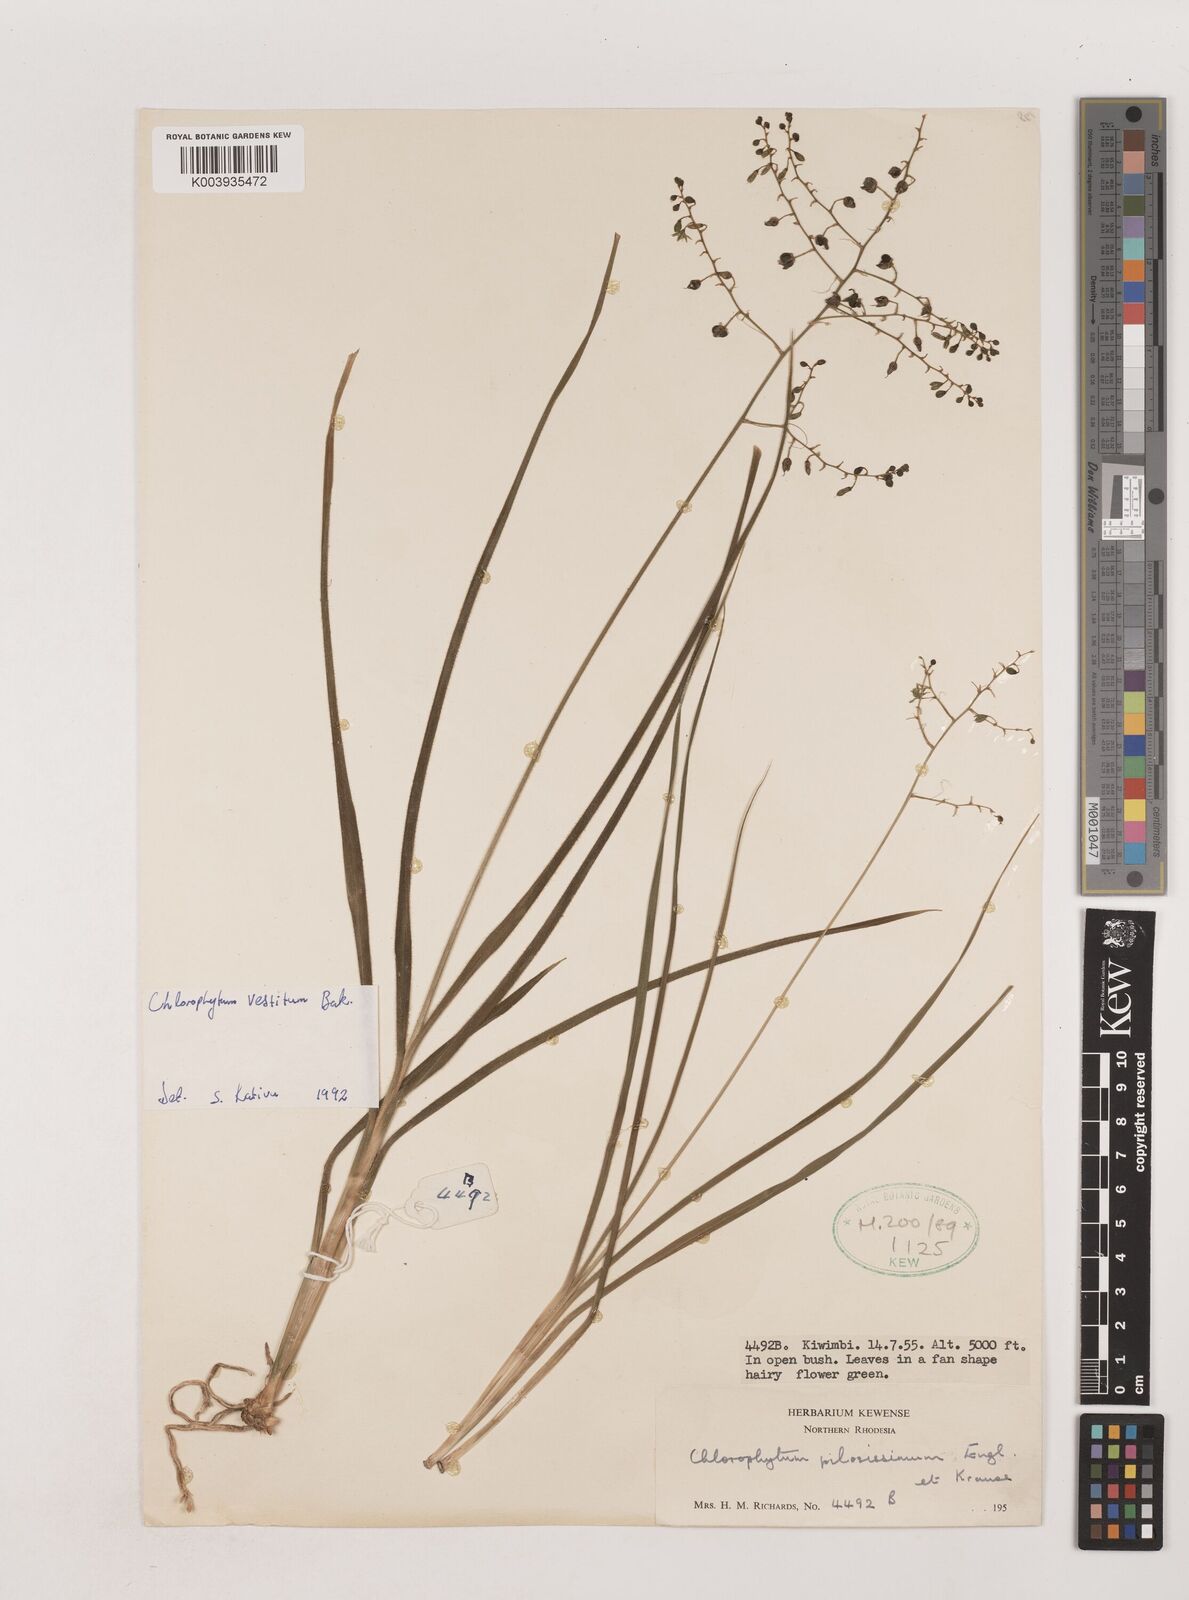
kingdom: Plantae
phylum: Tracheophyta
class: Liliopsida
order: Asparagales
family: Asparagaceae
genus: Chlorophytum
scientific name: Chlorophytum vestitum
